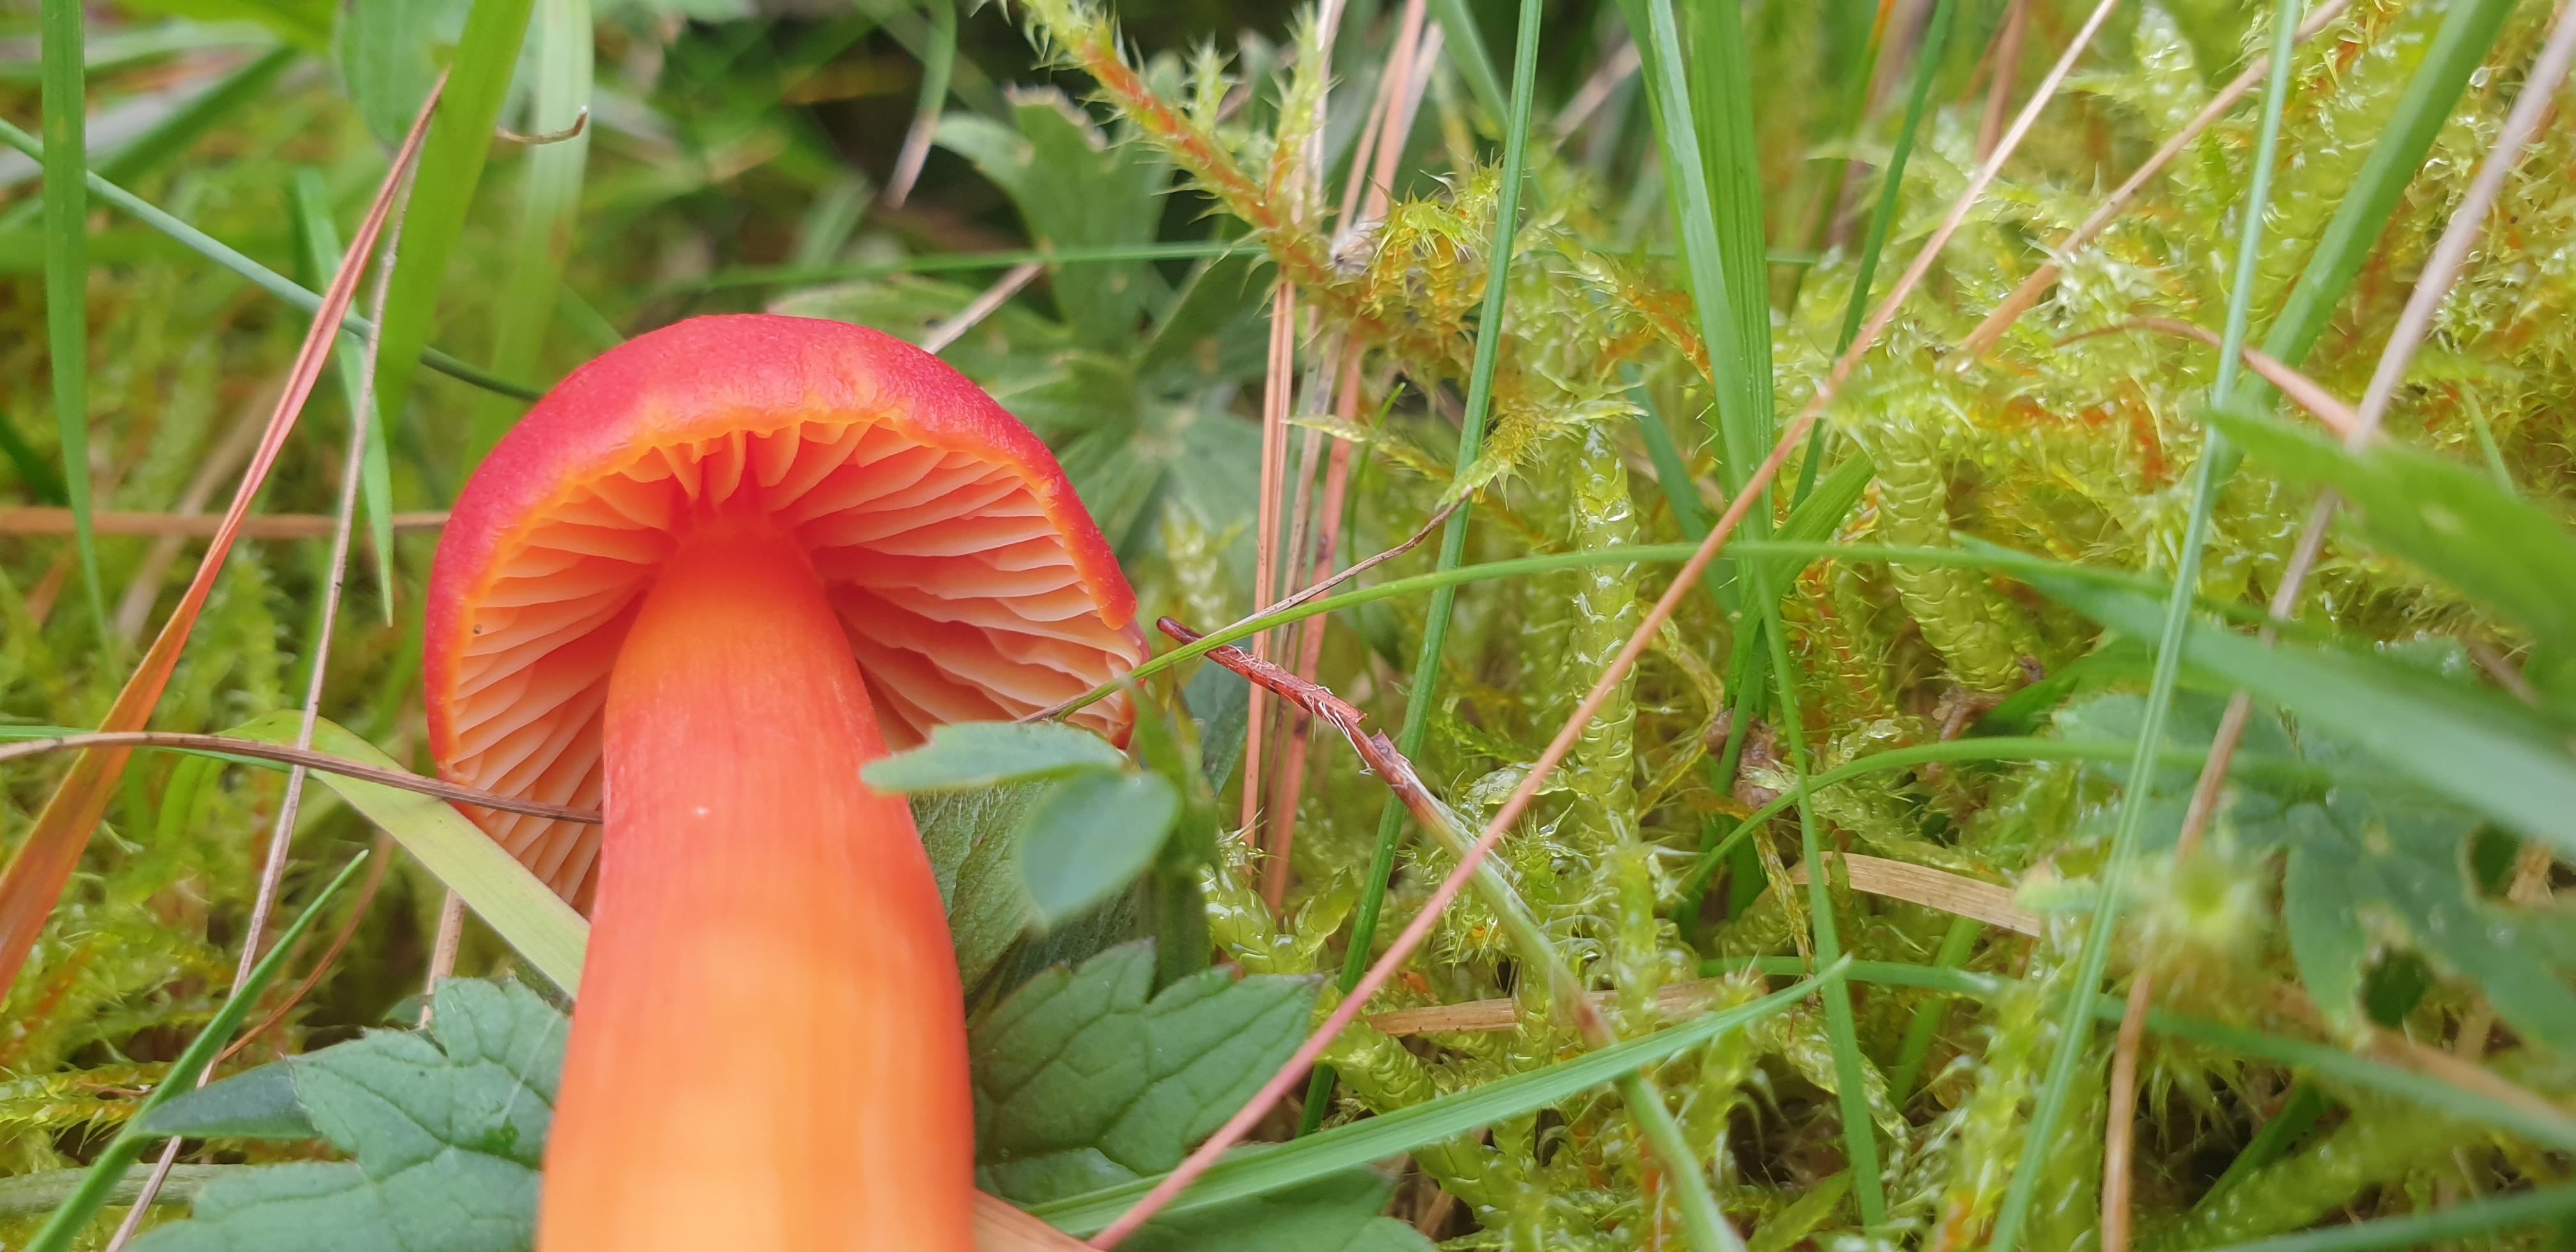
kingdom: Fungi
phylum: Basidiomycota
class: Agaricomycetes
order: Agaricales
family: Hygrophoraceae
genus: Hygrocybe
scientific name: Hygrocybe coccinea
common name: cinnober-vokshat
